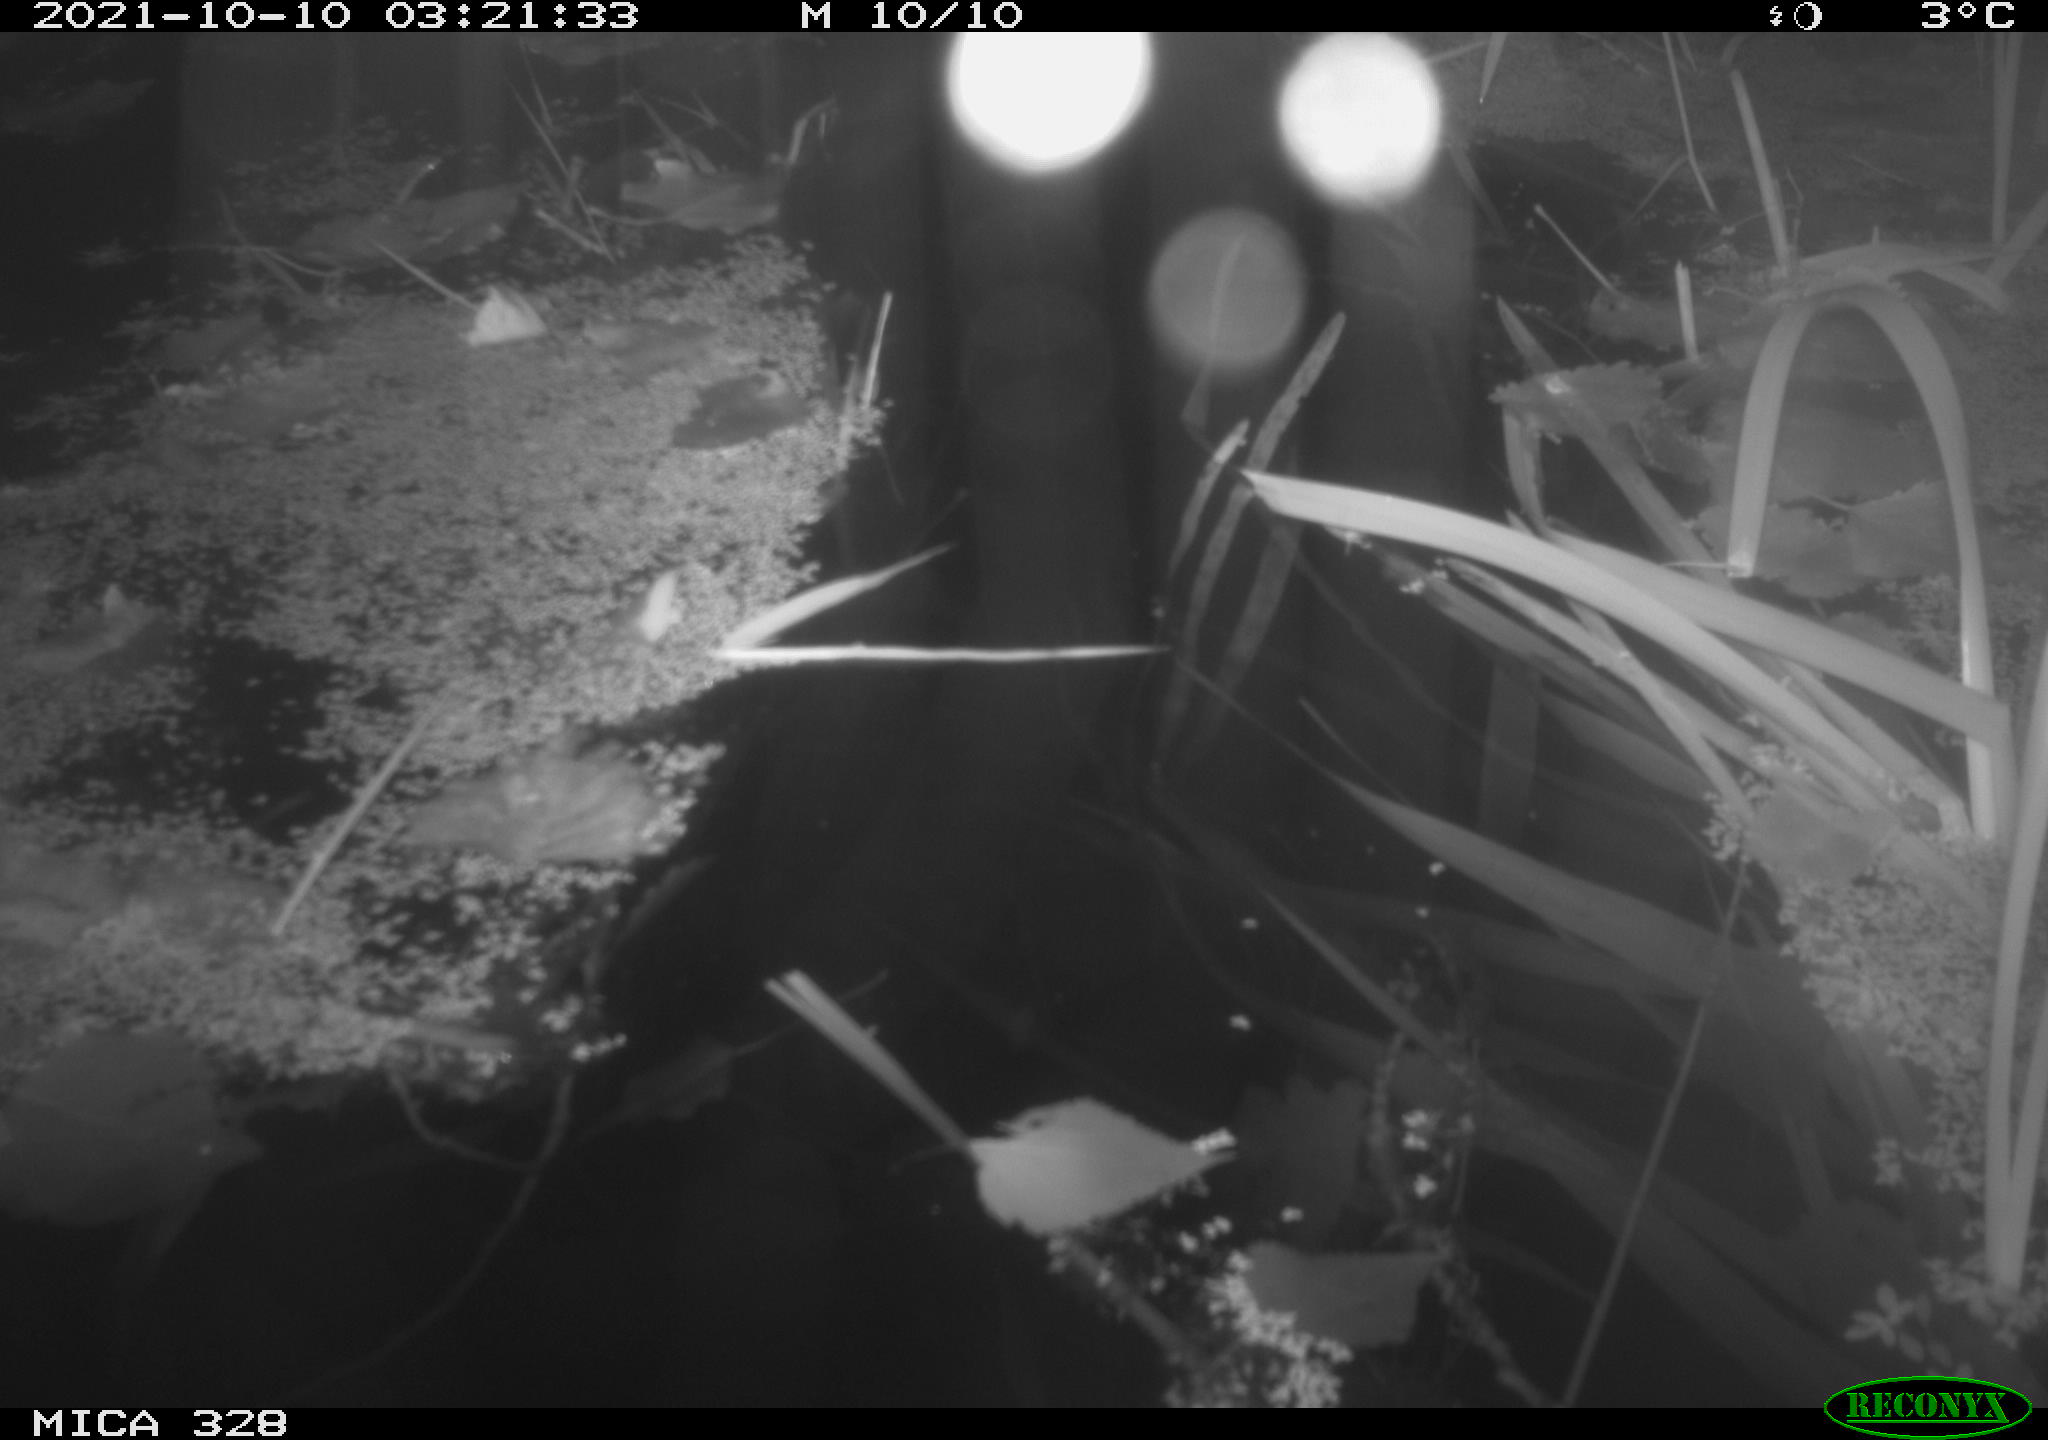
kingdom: Animalia
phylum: Chordata
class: Mammalia
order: Rodentia
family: Cricetidae
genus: Ondatra
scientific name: Ondatra zibethicus
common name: Muskrat
